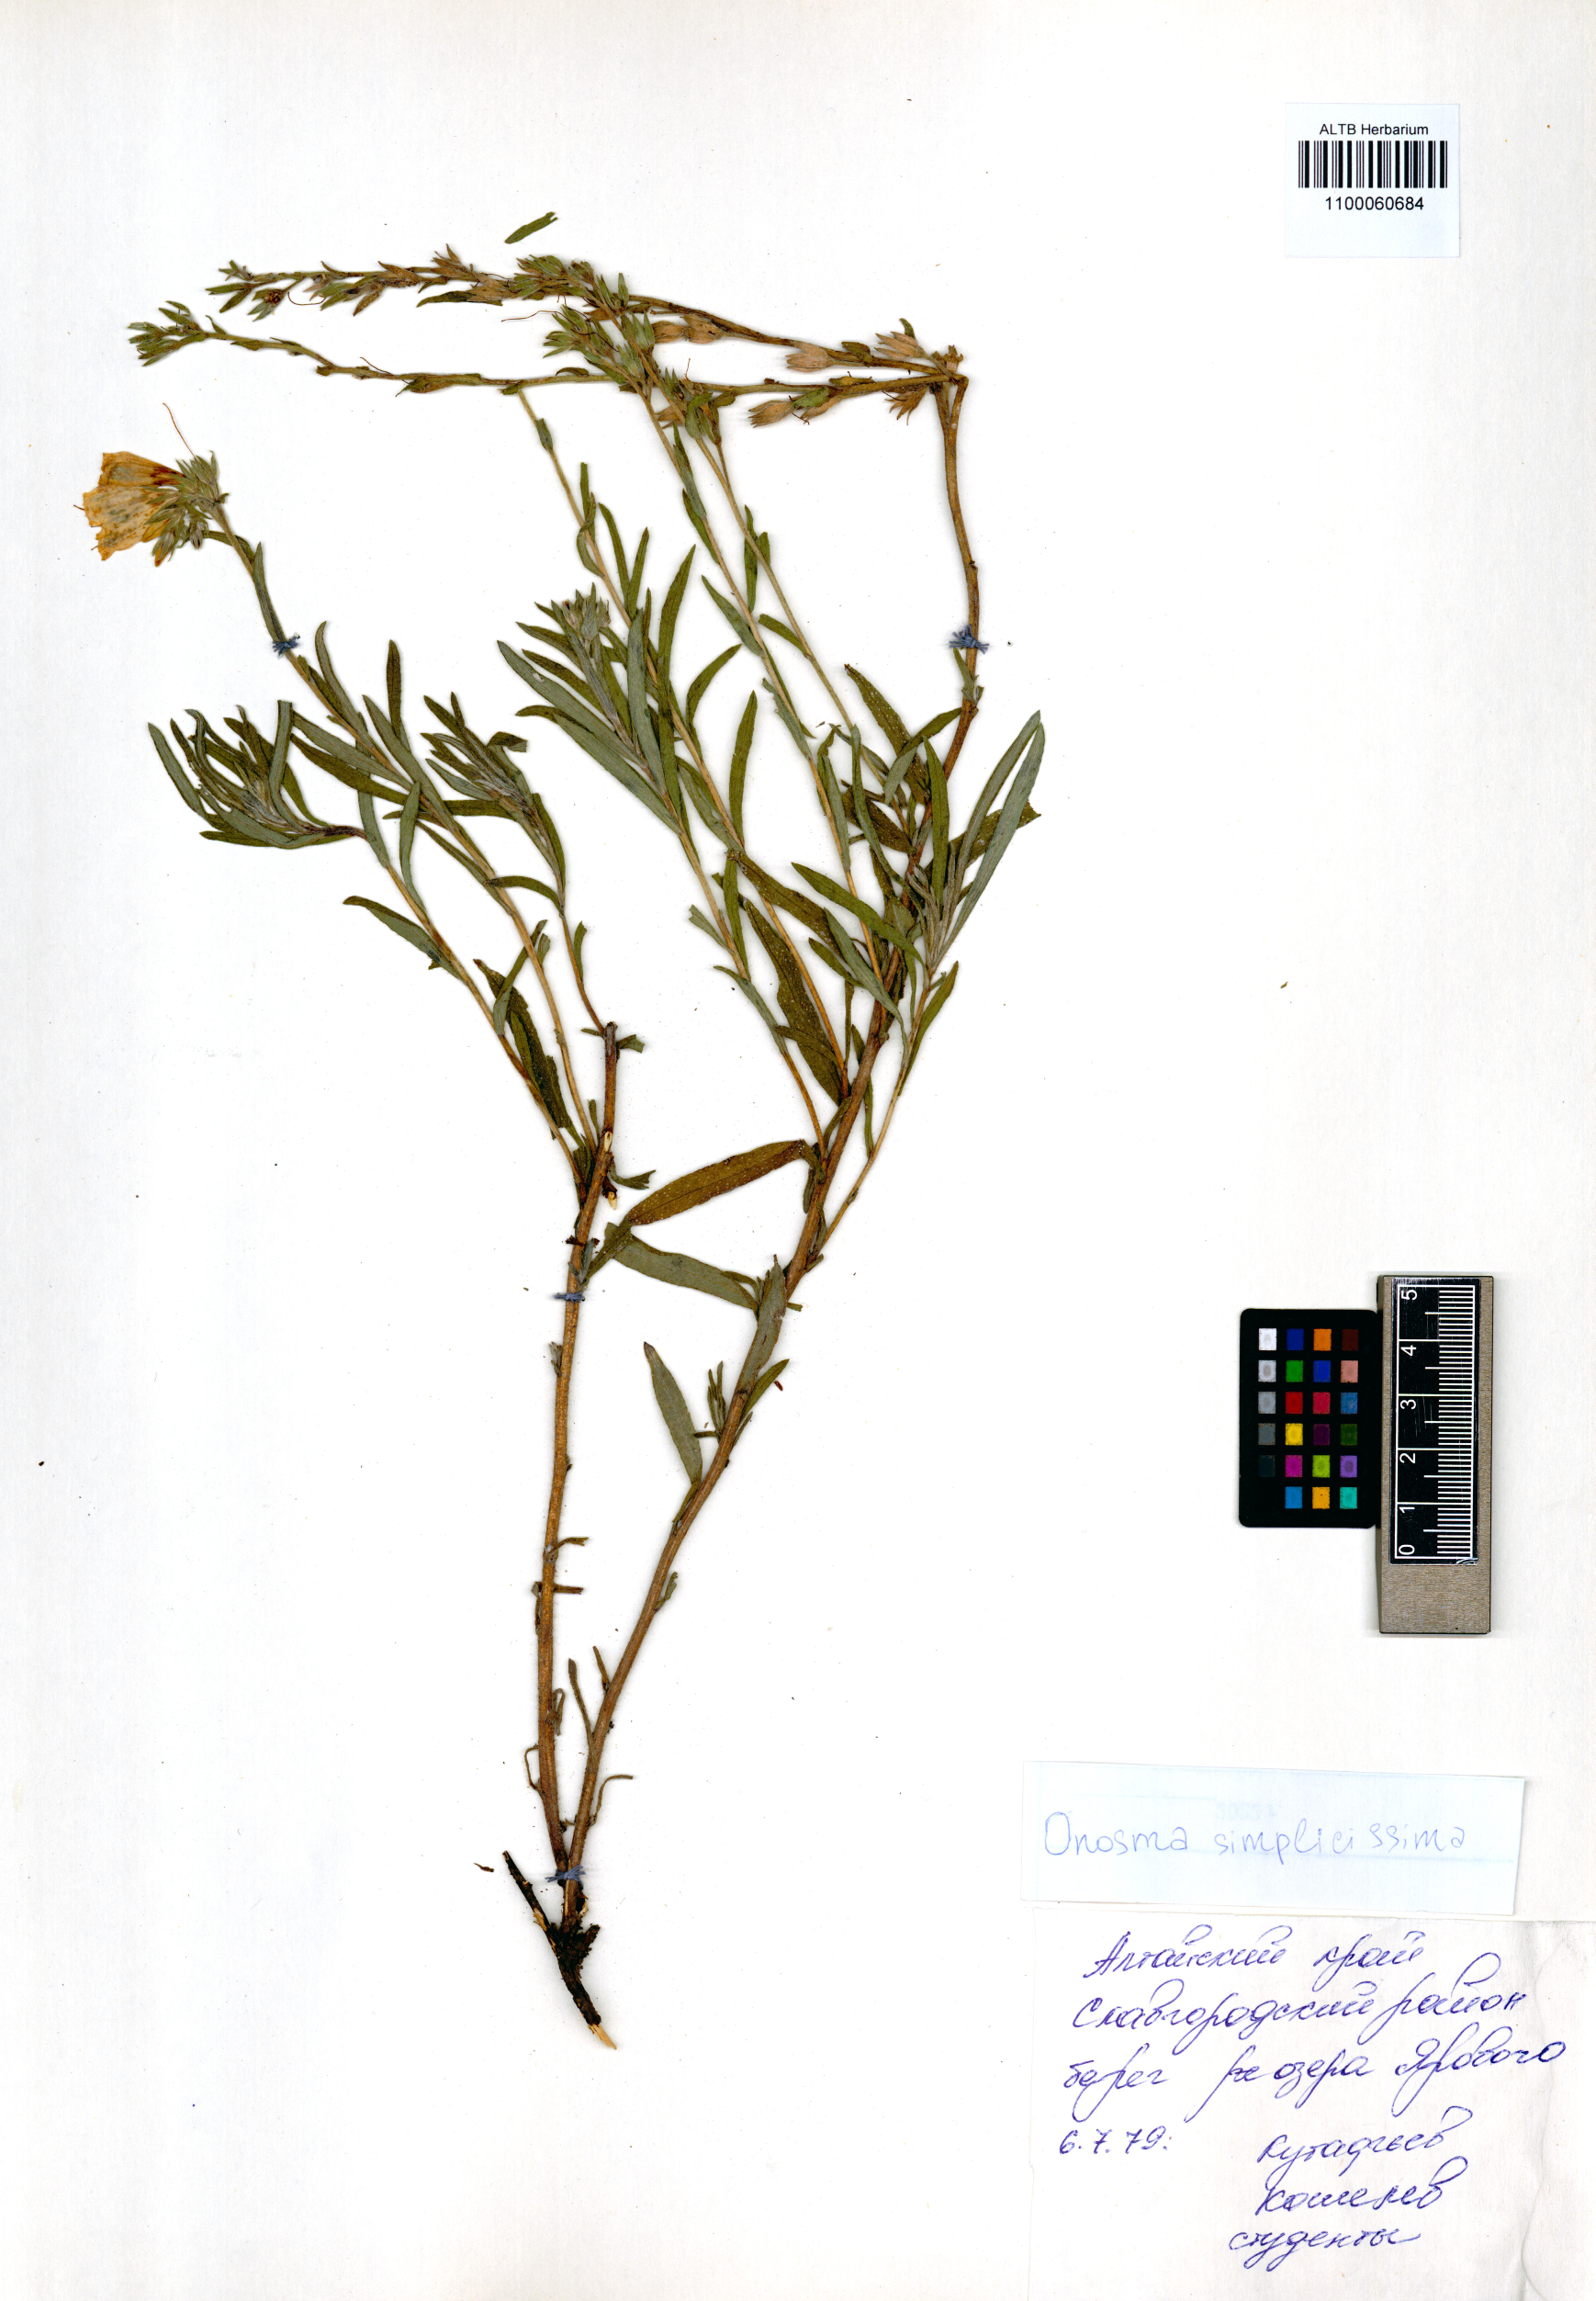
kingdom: Plantae
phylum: Tracheophyta
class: Magnoliopsida
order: Boraginales
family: Boraginaceae
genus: Onosma
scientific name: Onosma simplicissima
